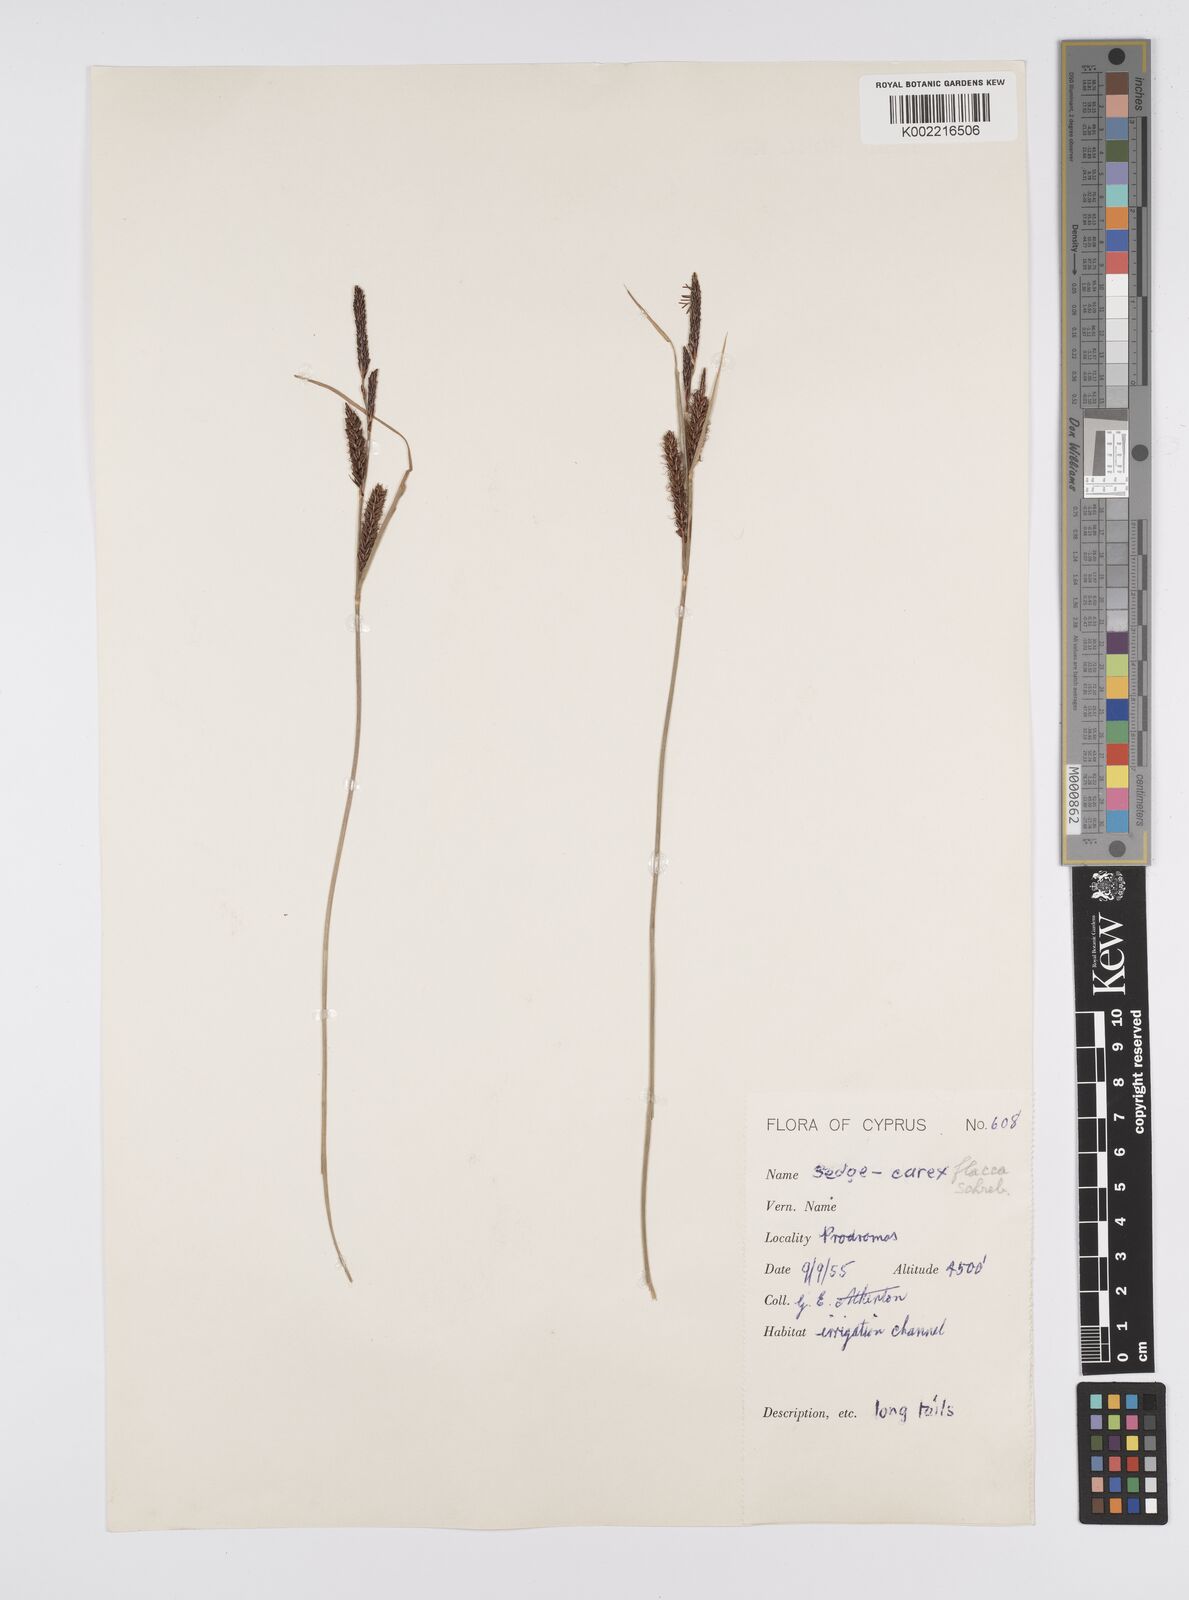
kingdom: Plantae
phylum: Tracheophyta
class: Liliopsida
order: Poales
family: Cyperaceae
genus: Carex
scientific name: Carex flacca
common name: Glaucous sedge
